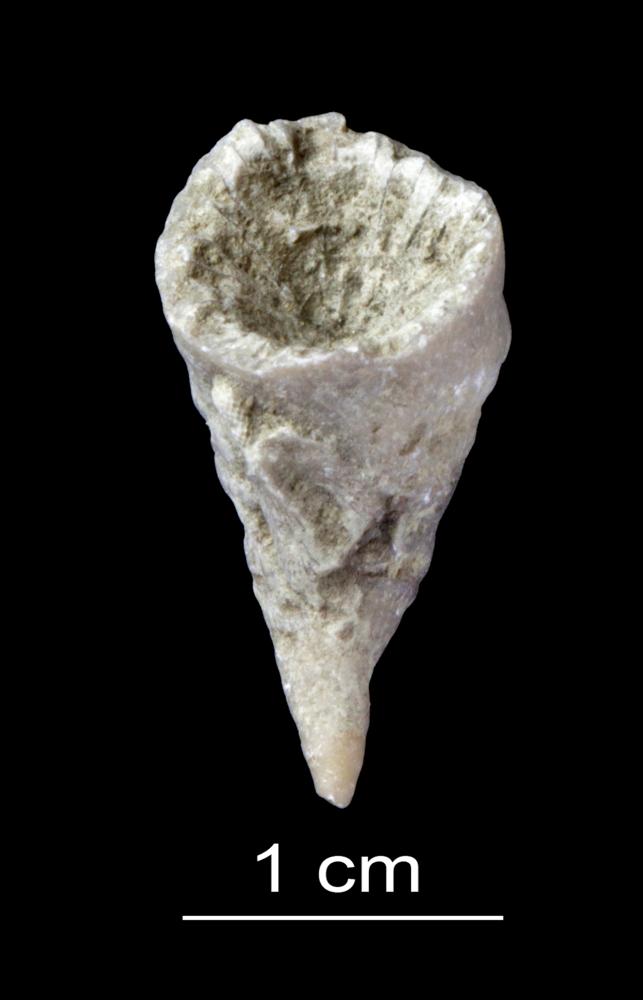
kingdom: Animalia
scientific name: Animalia
